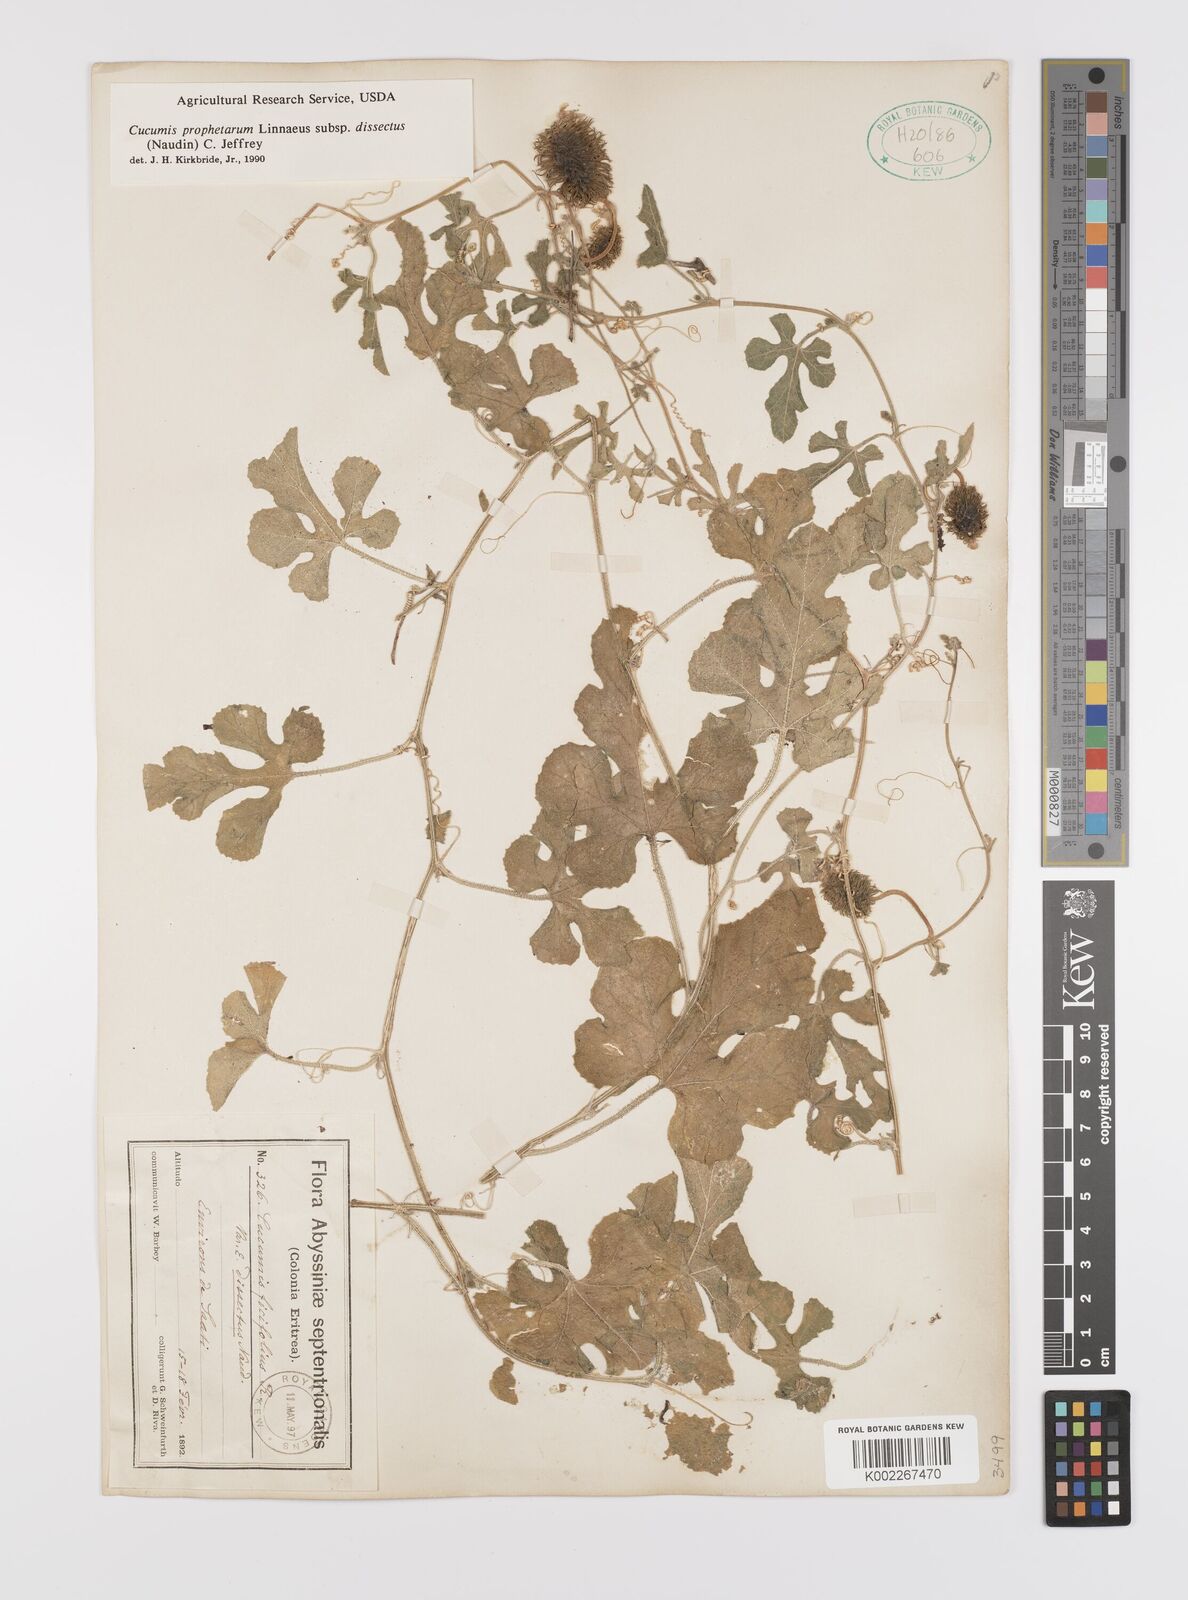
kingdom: Plantae
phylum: Tracheophyta
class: Magnoliopsida
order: Cucurbitales
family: Cucurbitaceae
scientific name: Cucurbitaceae
